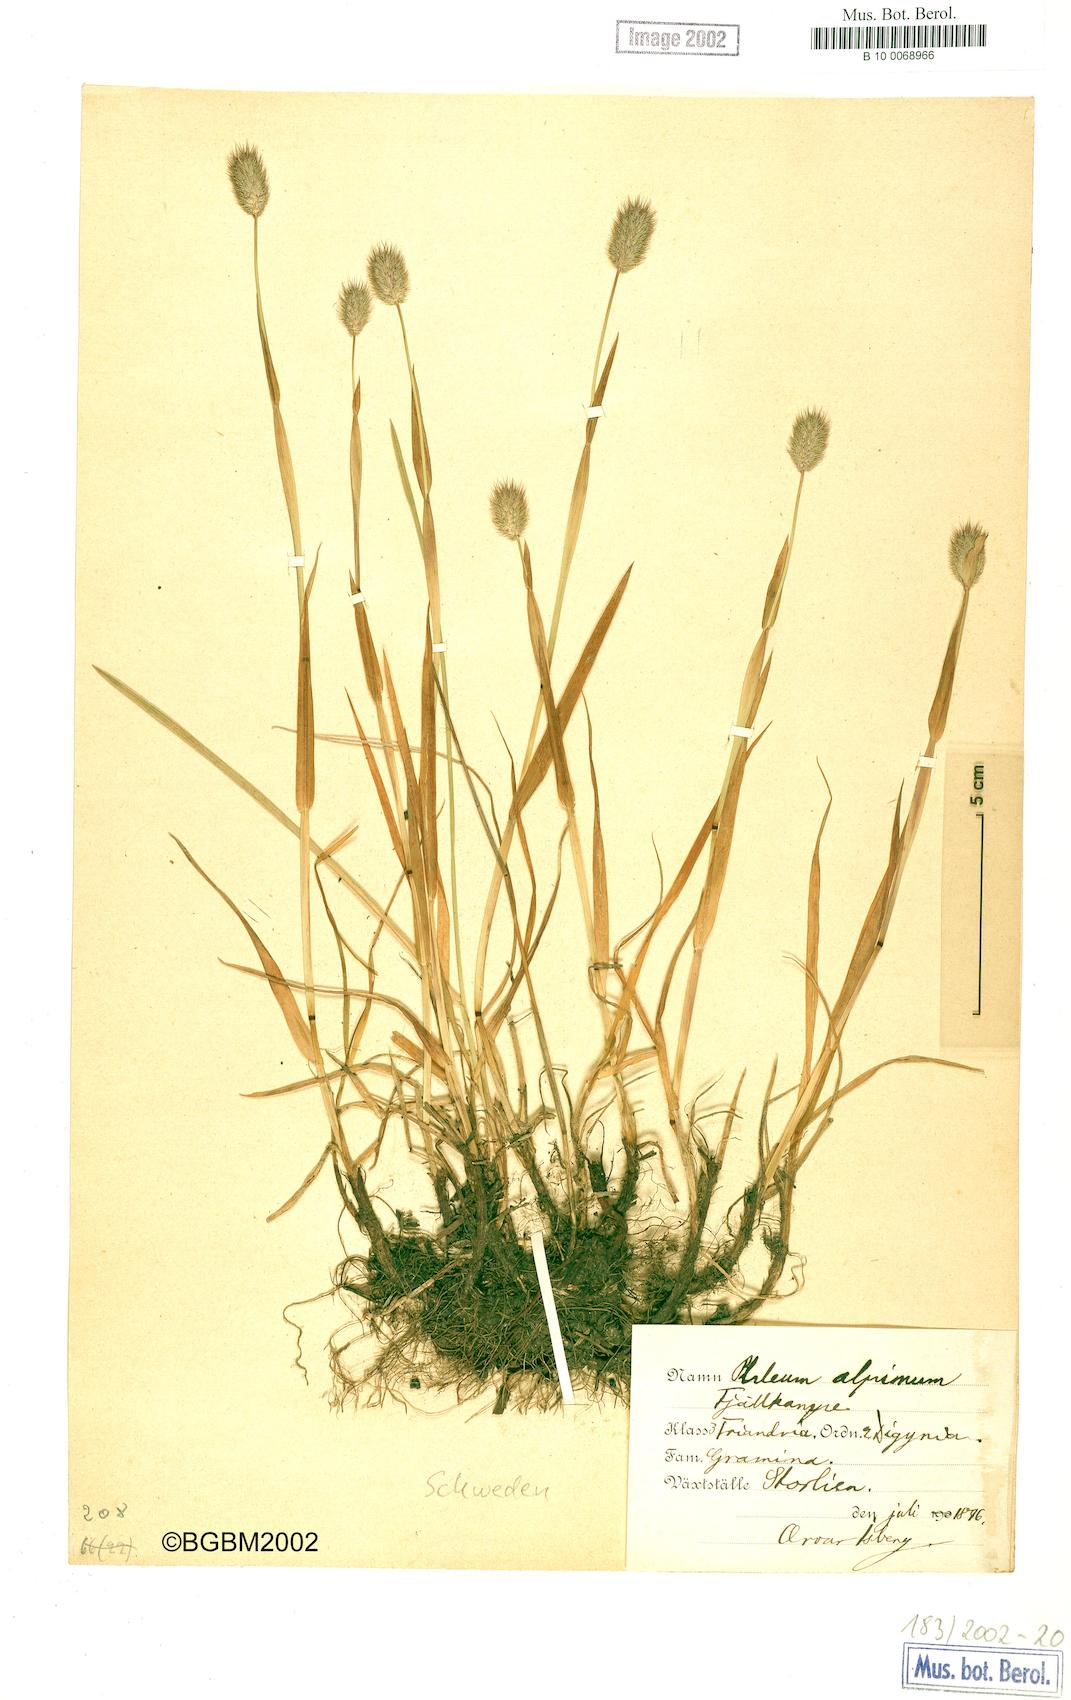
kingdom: Plantae
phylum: Tracheophyta
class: Liliopsida
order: Poales
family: Poaceae
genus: Phleum
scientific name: Phleum alpinum
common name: Alpine cat's-tail
